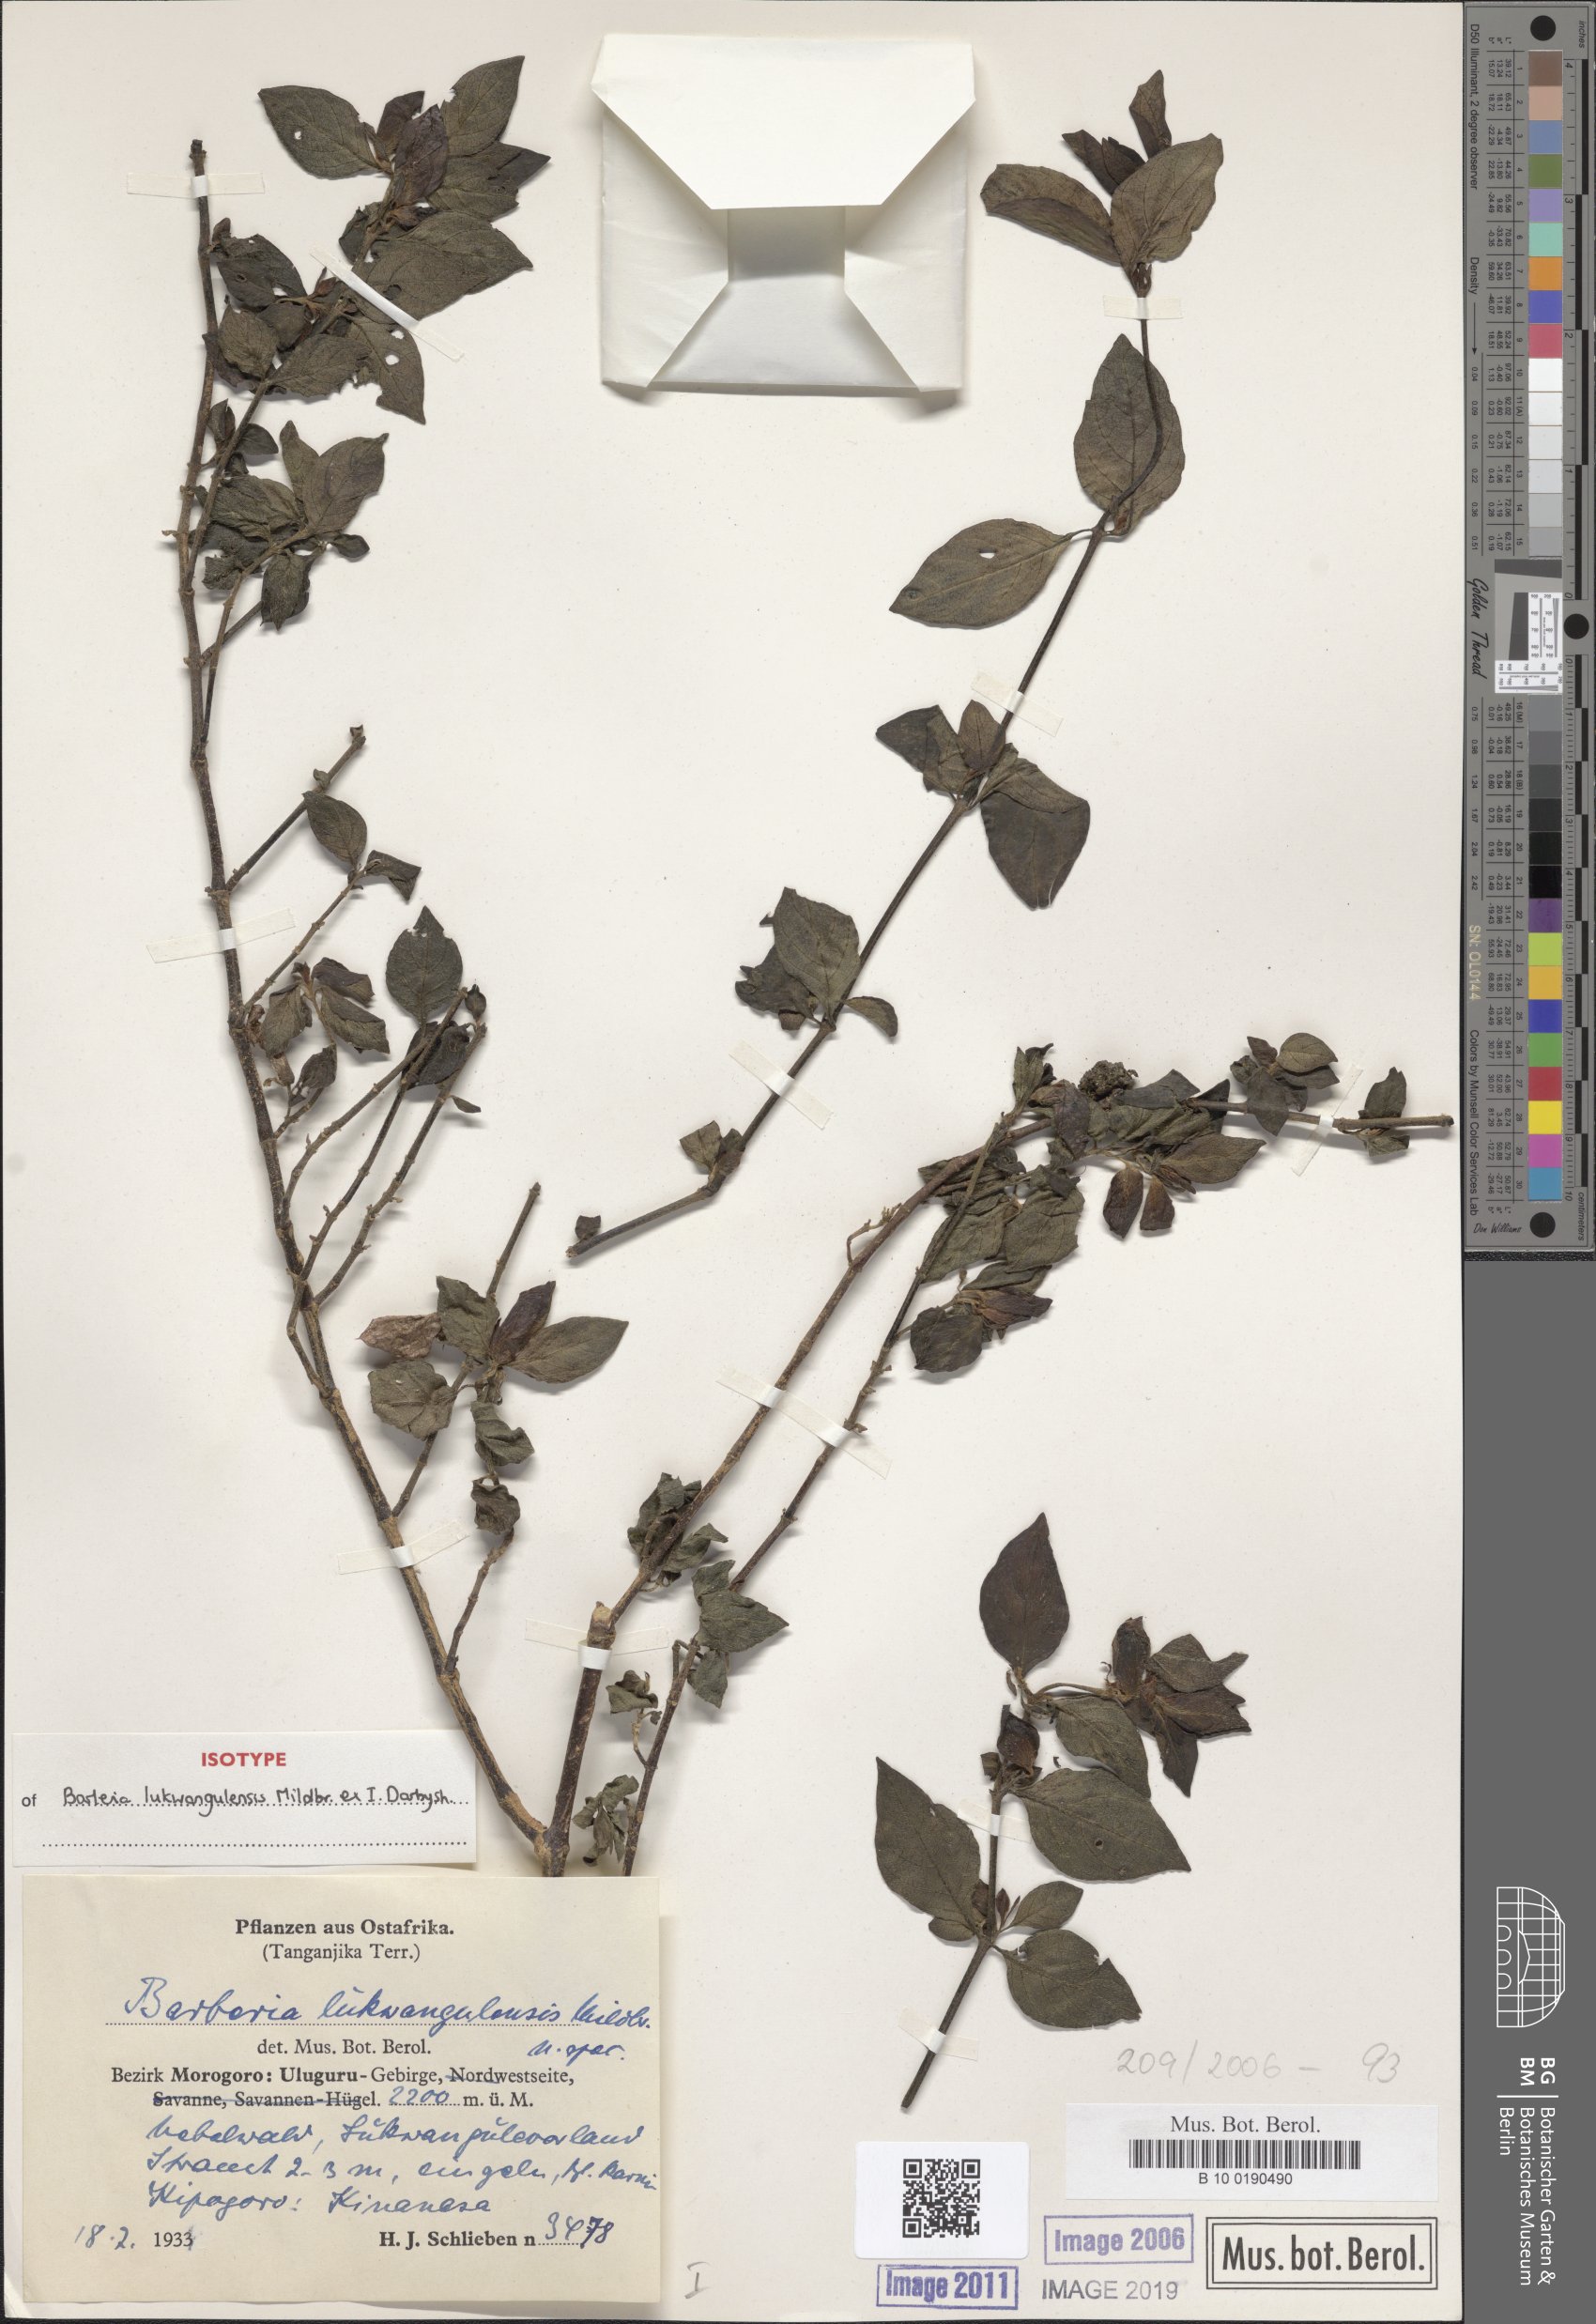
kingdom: Plantae
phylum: Tracheophyta
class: Magnoliopsida
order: Lamiales
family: Acanthaceae
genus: Barleria
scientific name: Barleria lukwangulensis
